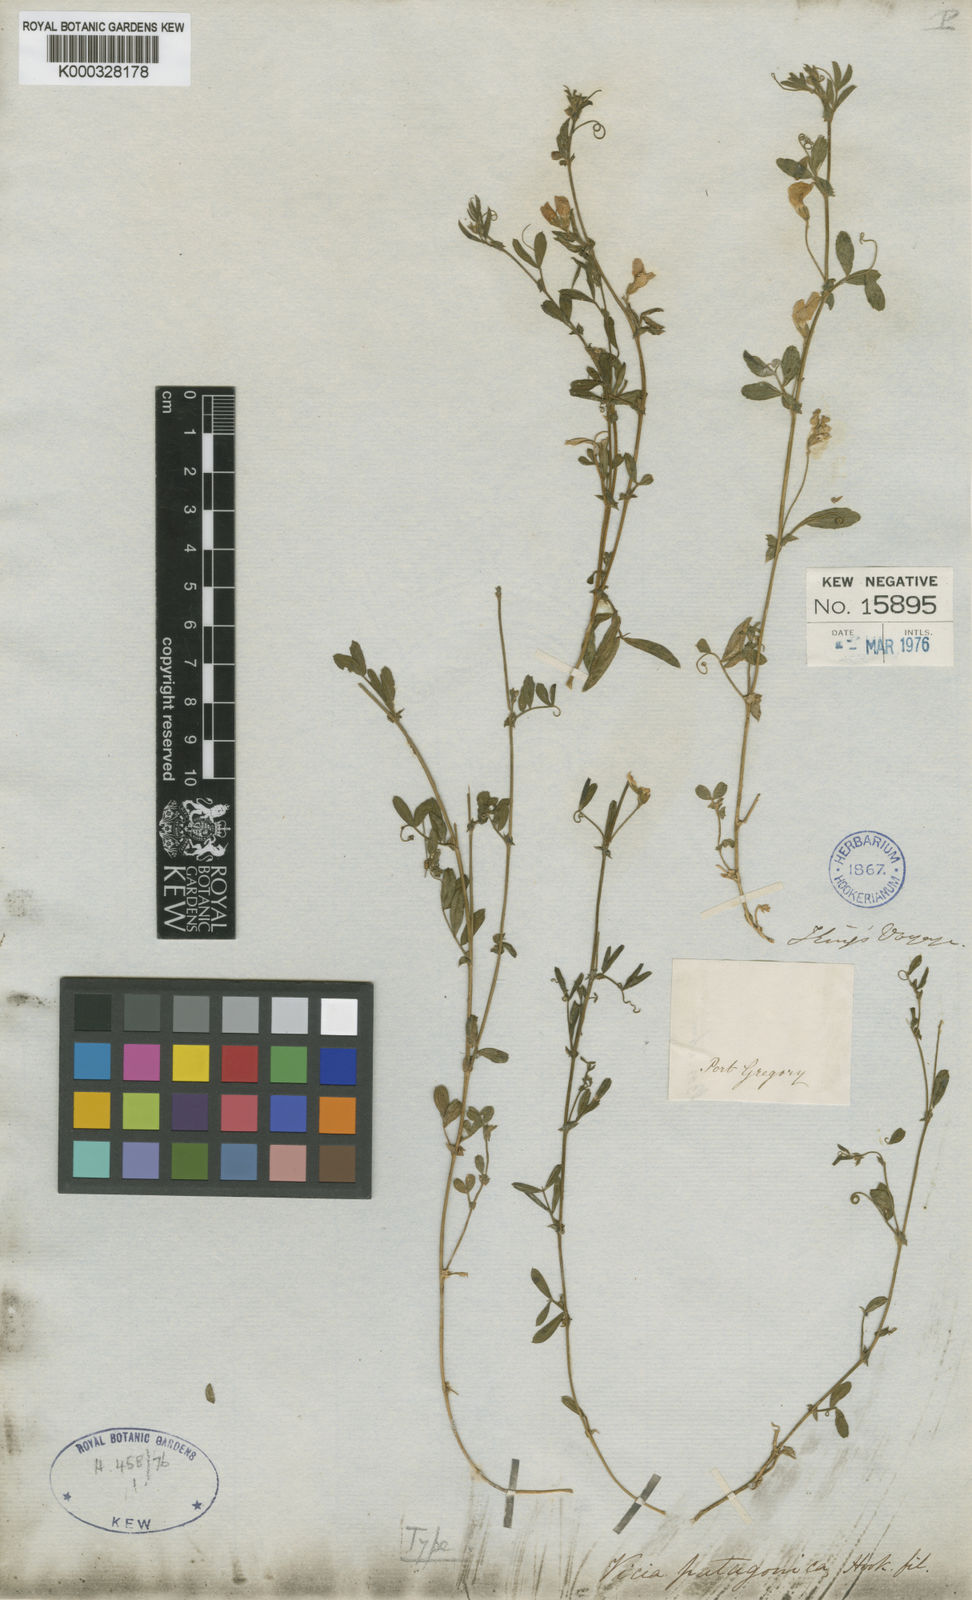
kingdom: Plantae
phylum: Tracheophyta
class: Magnoliopsida
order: Fabales
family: Fabaceae
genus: Vicia
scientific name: Vicia magellanica
